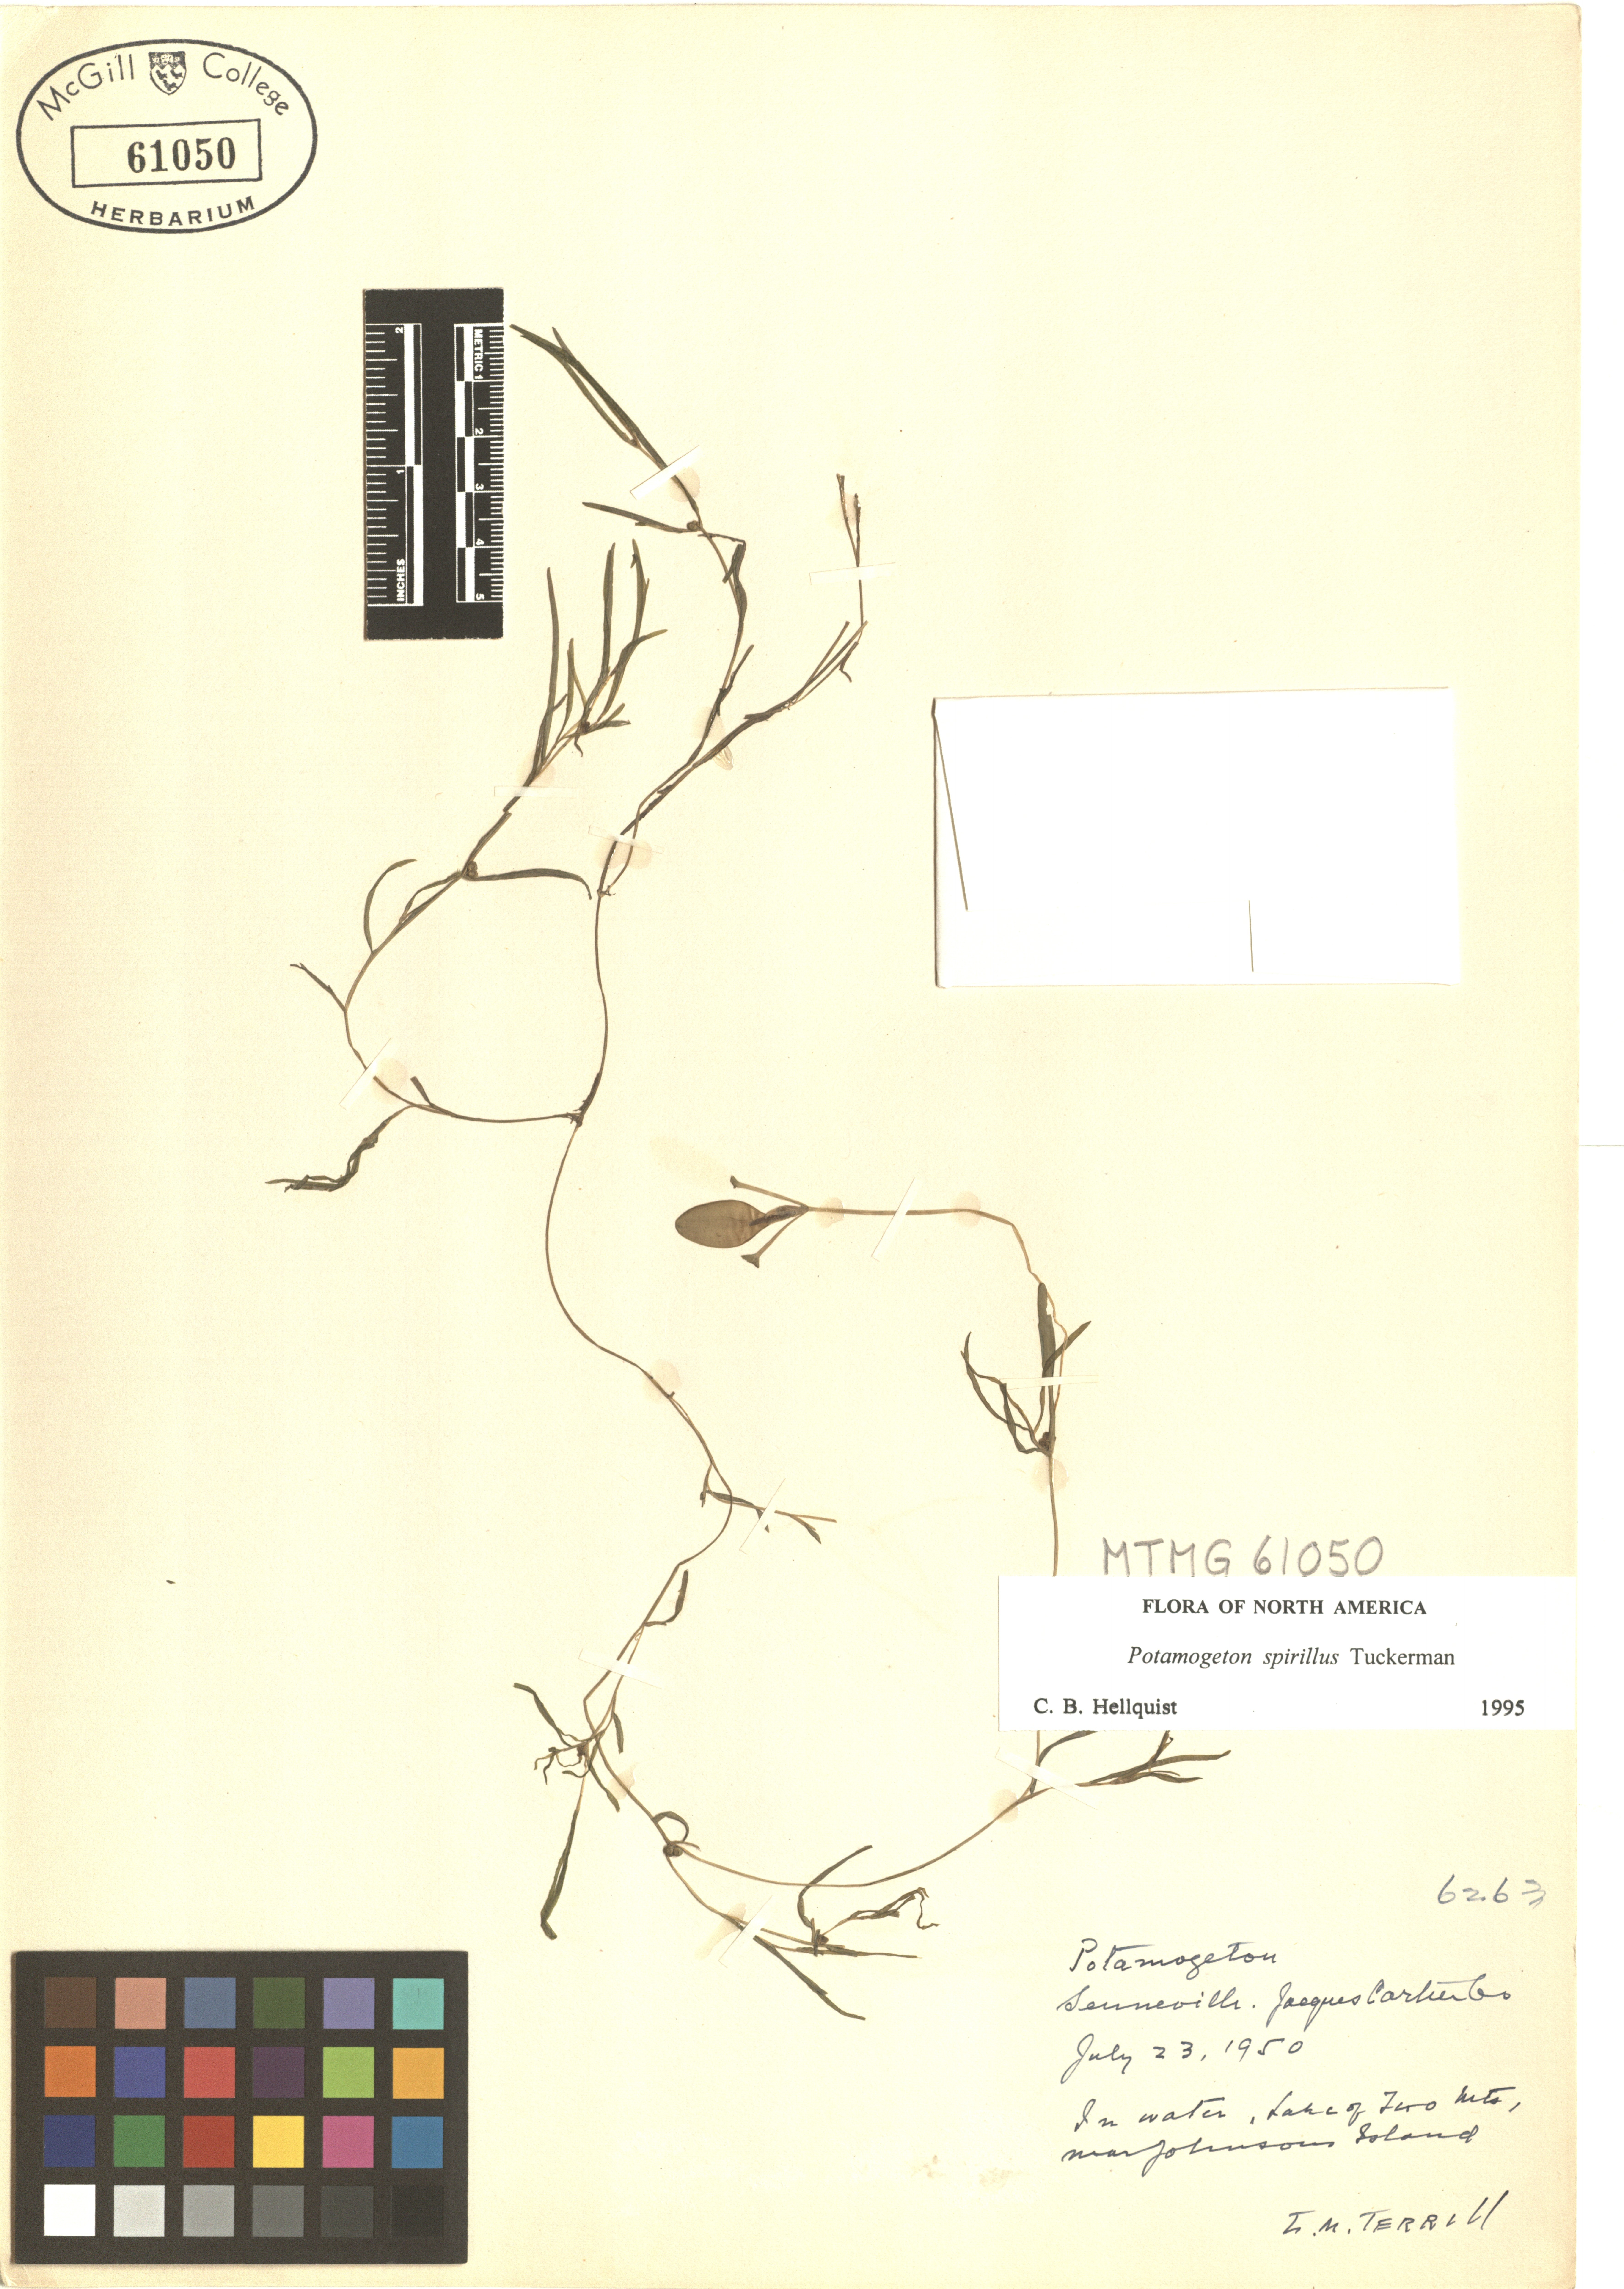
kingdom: Plantae
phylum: Tracheophyta
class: Liliopsida
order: Alismatales
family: Potamogetonaceae
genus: Potamogeton
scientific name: Potamogeton spirillus
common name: Northern snail-seed pondweed
